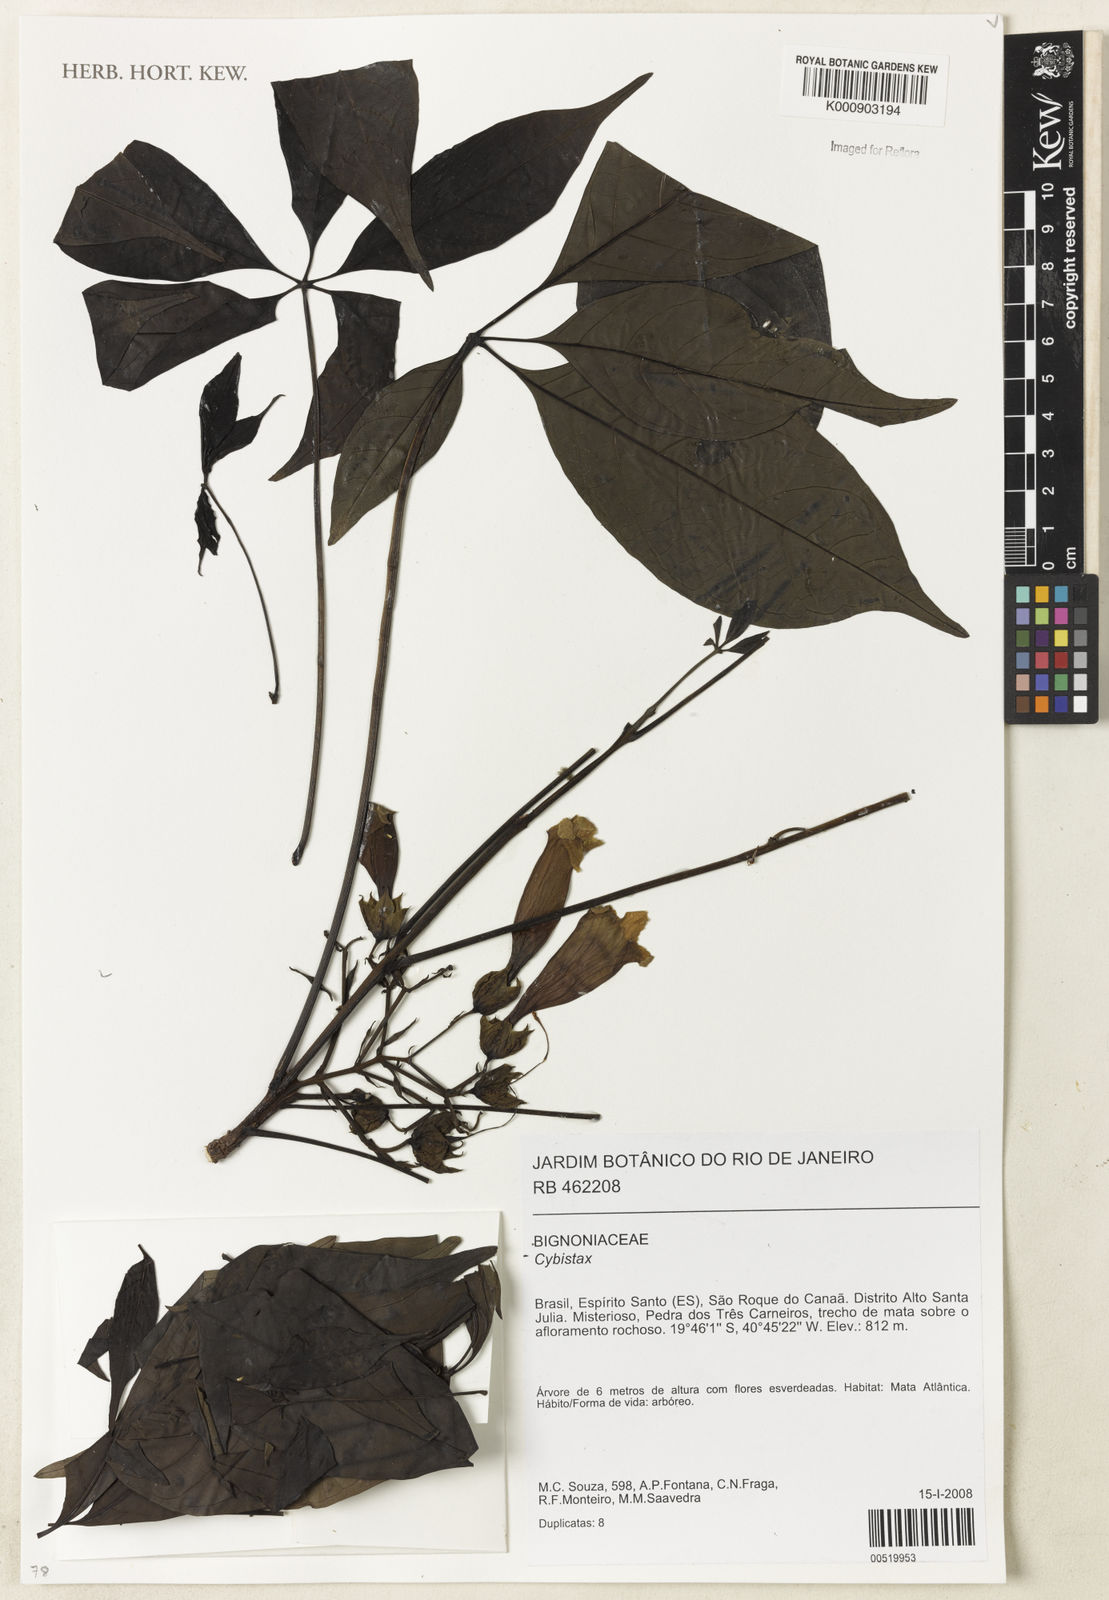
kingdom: Plantae
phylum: Tracheophyta
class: Magnoliopsida
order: Lamiales
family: Bignoniaceae
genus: Cybistax
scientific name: Cybistax
